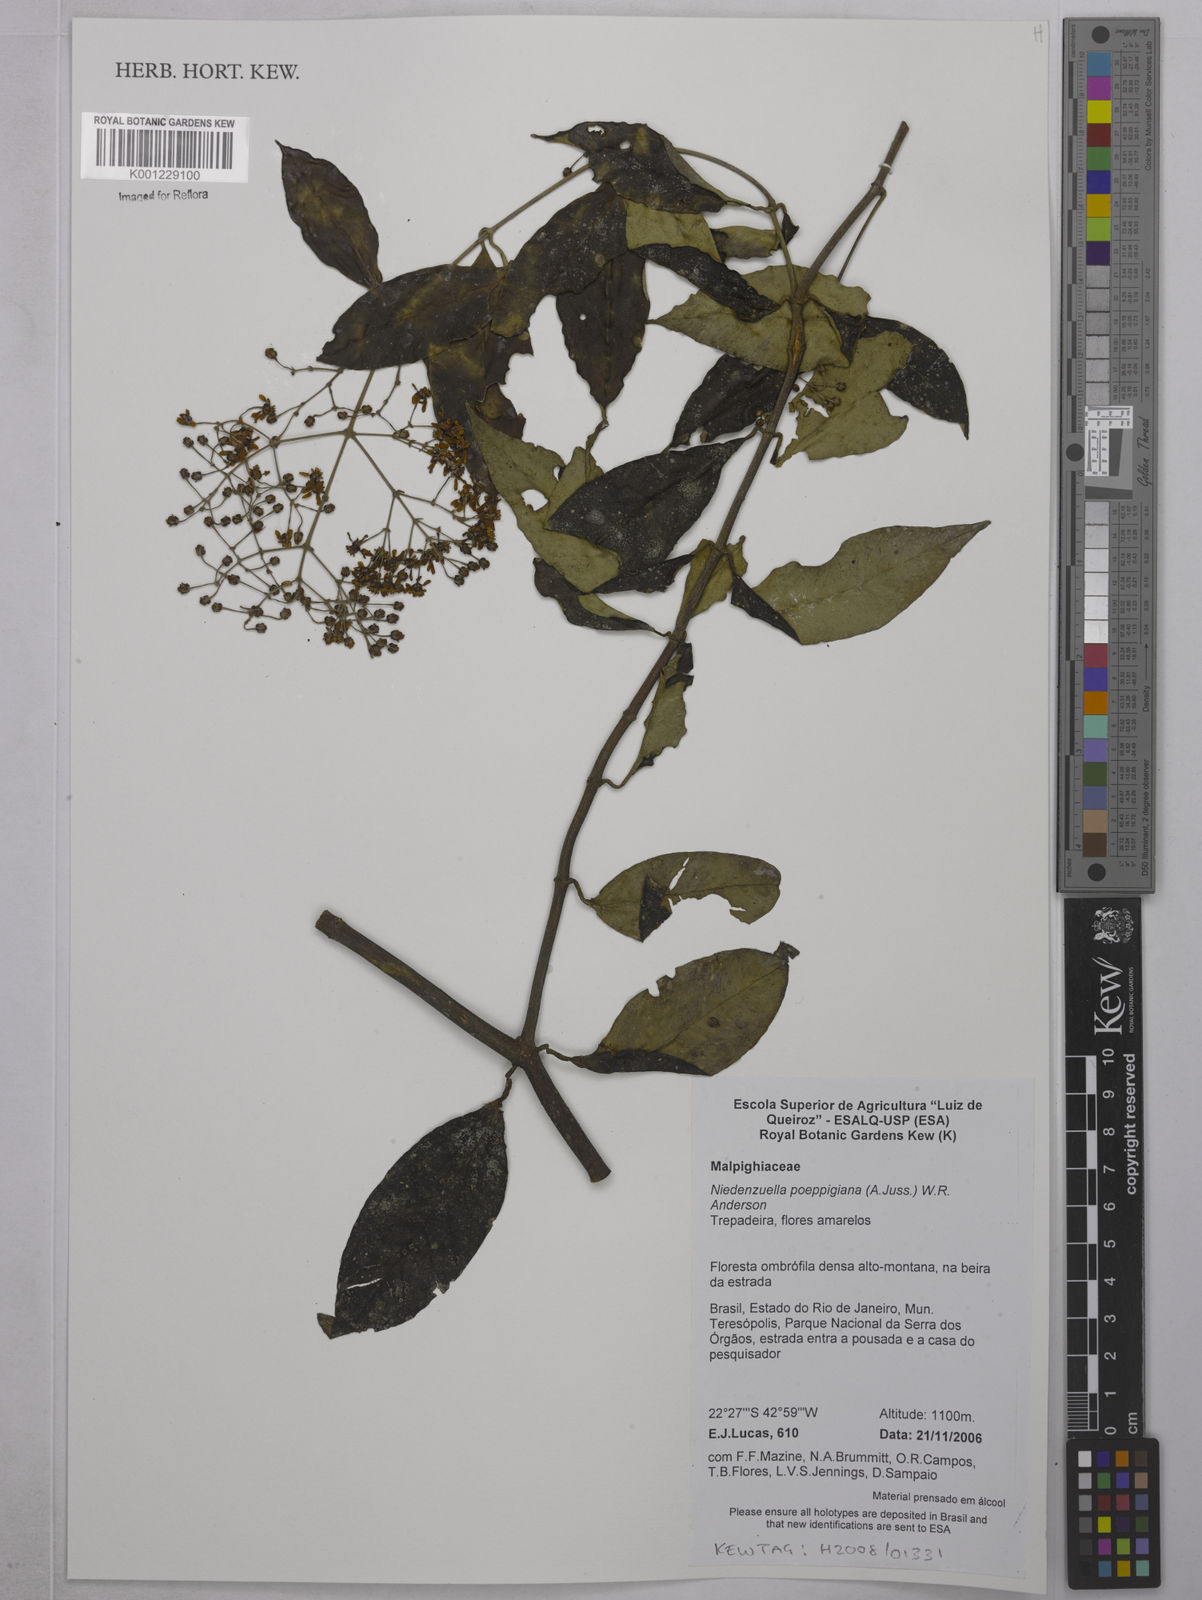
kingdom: Plantae
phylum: Tracheophyta
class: Magnoliopsida
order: Malpighiales
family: Malpighiaceae
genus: Niedenzuella
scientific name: Niedenzuella poeppigiana
